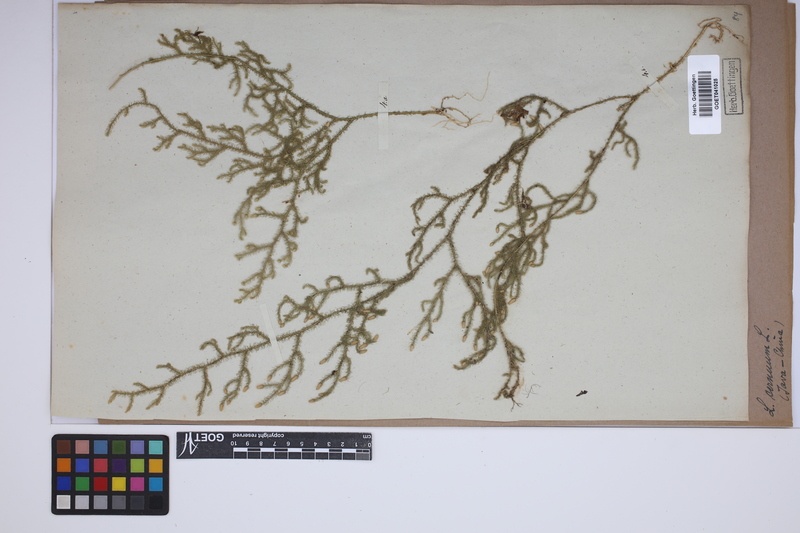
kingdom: Plantae
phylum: Tracheophyta
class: Lycopodiopsida
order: Lycopodiales
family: Lycopodiaceae
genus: Palhinhaea
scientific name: Palhinhaea cernua
